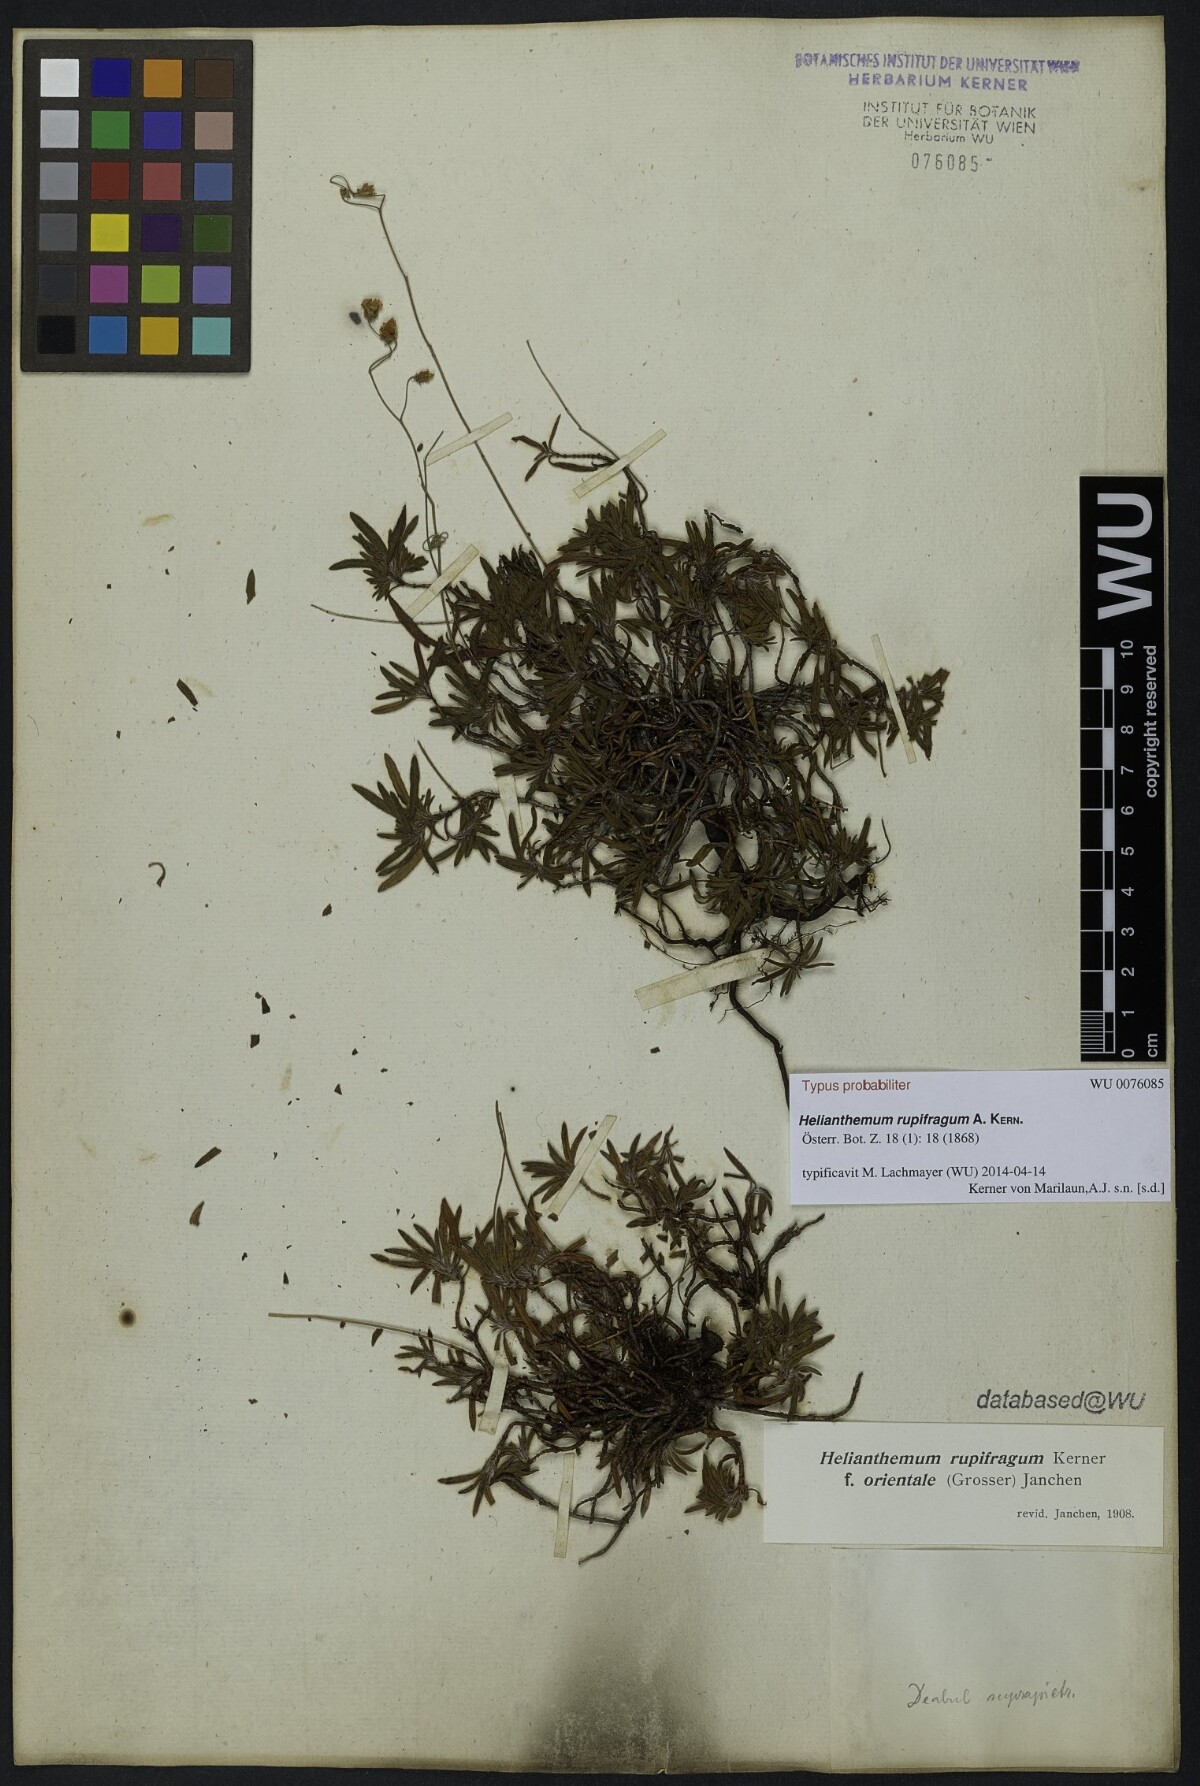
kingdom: Plantae
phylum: Tracheophyta
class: Magnoliopsida
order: Malvales
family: Cistaceae
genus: Helianthemum
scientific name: Helianthemum rupifragum
